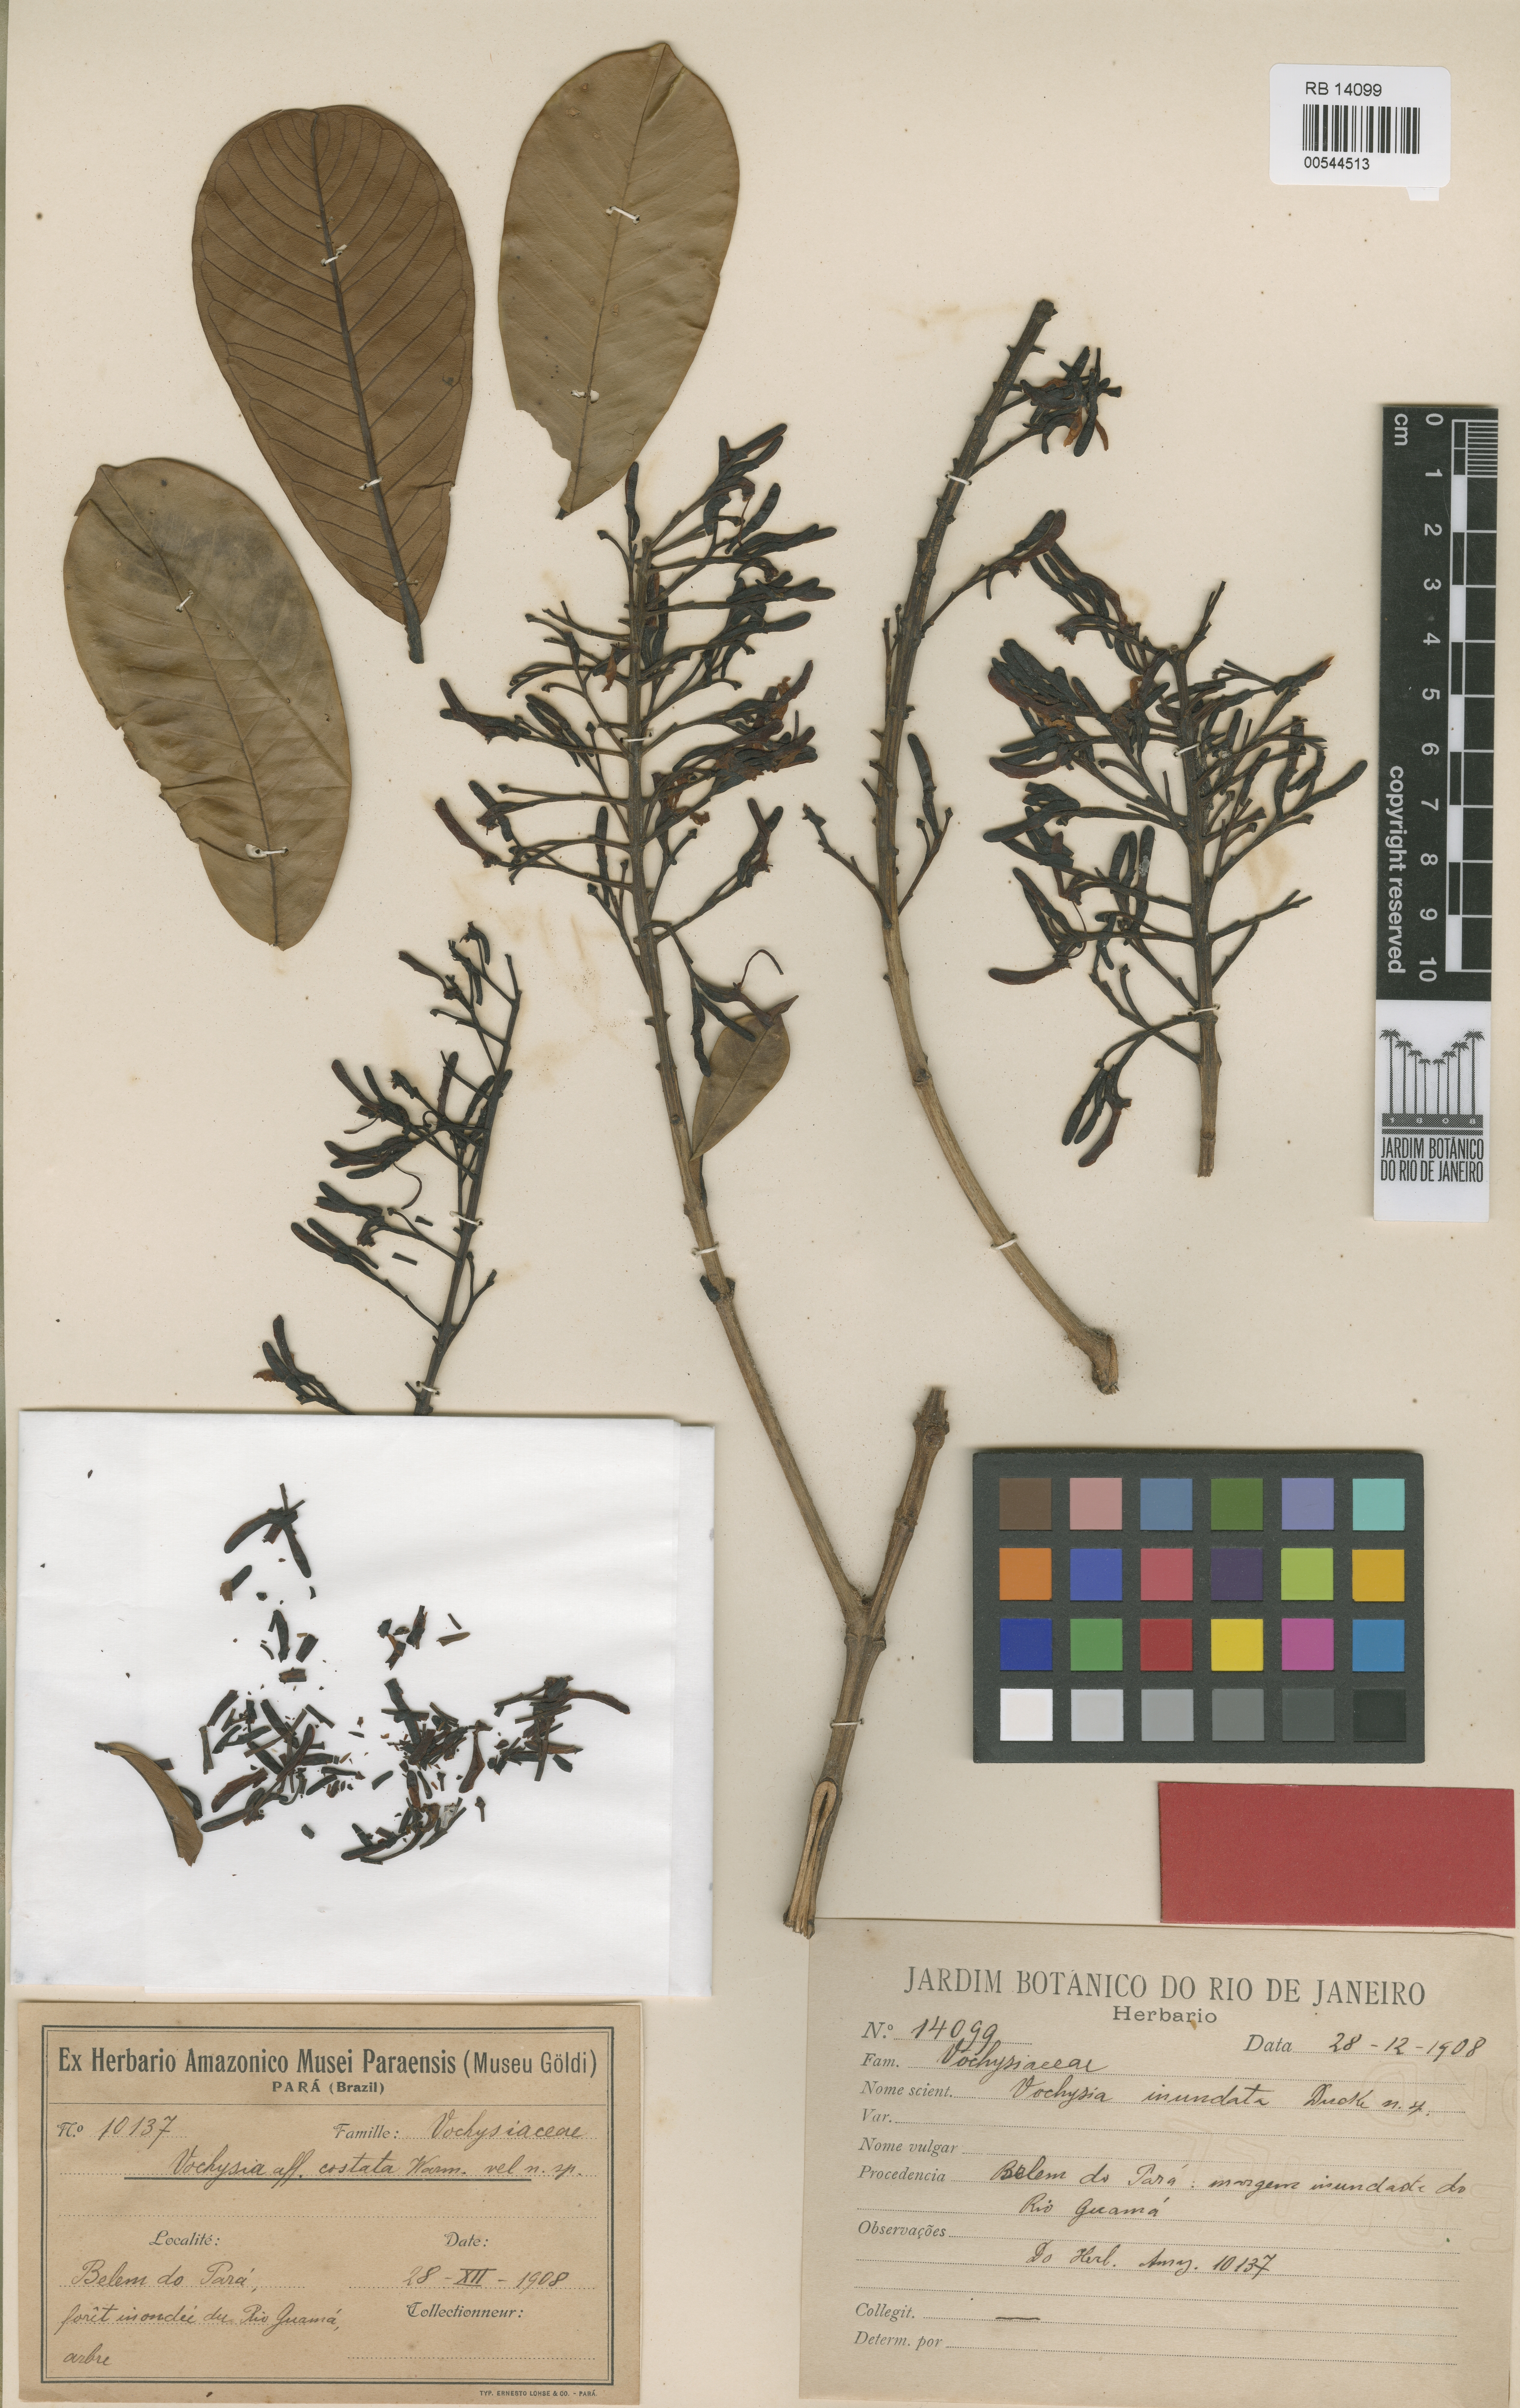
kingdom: Plantae
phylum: Tracheophyta
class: Magnoliopsida
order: Myrtales
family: Vochysiaceae
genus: Vochysia
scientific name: Vochysia inundata
